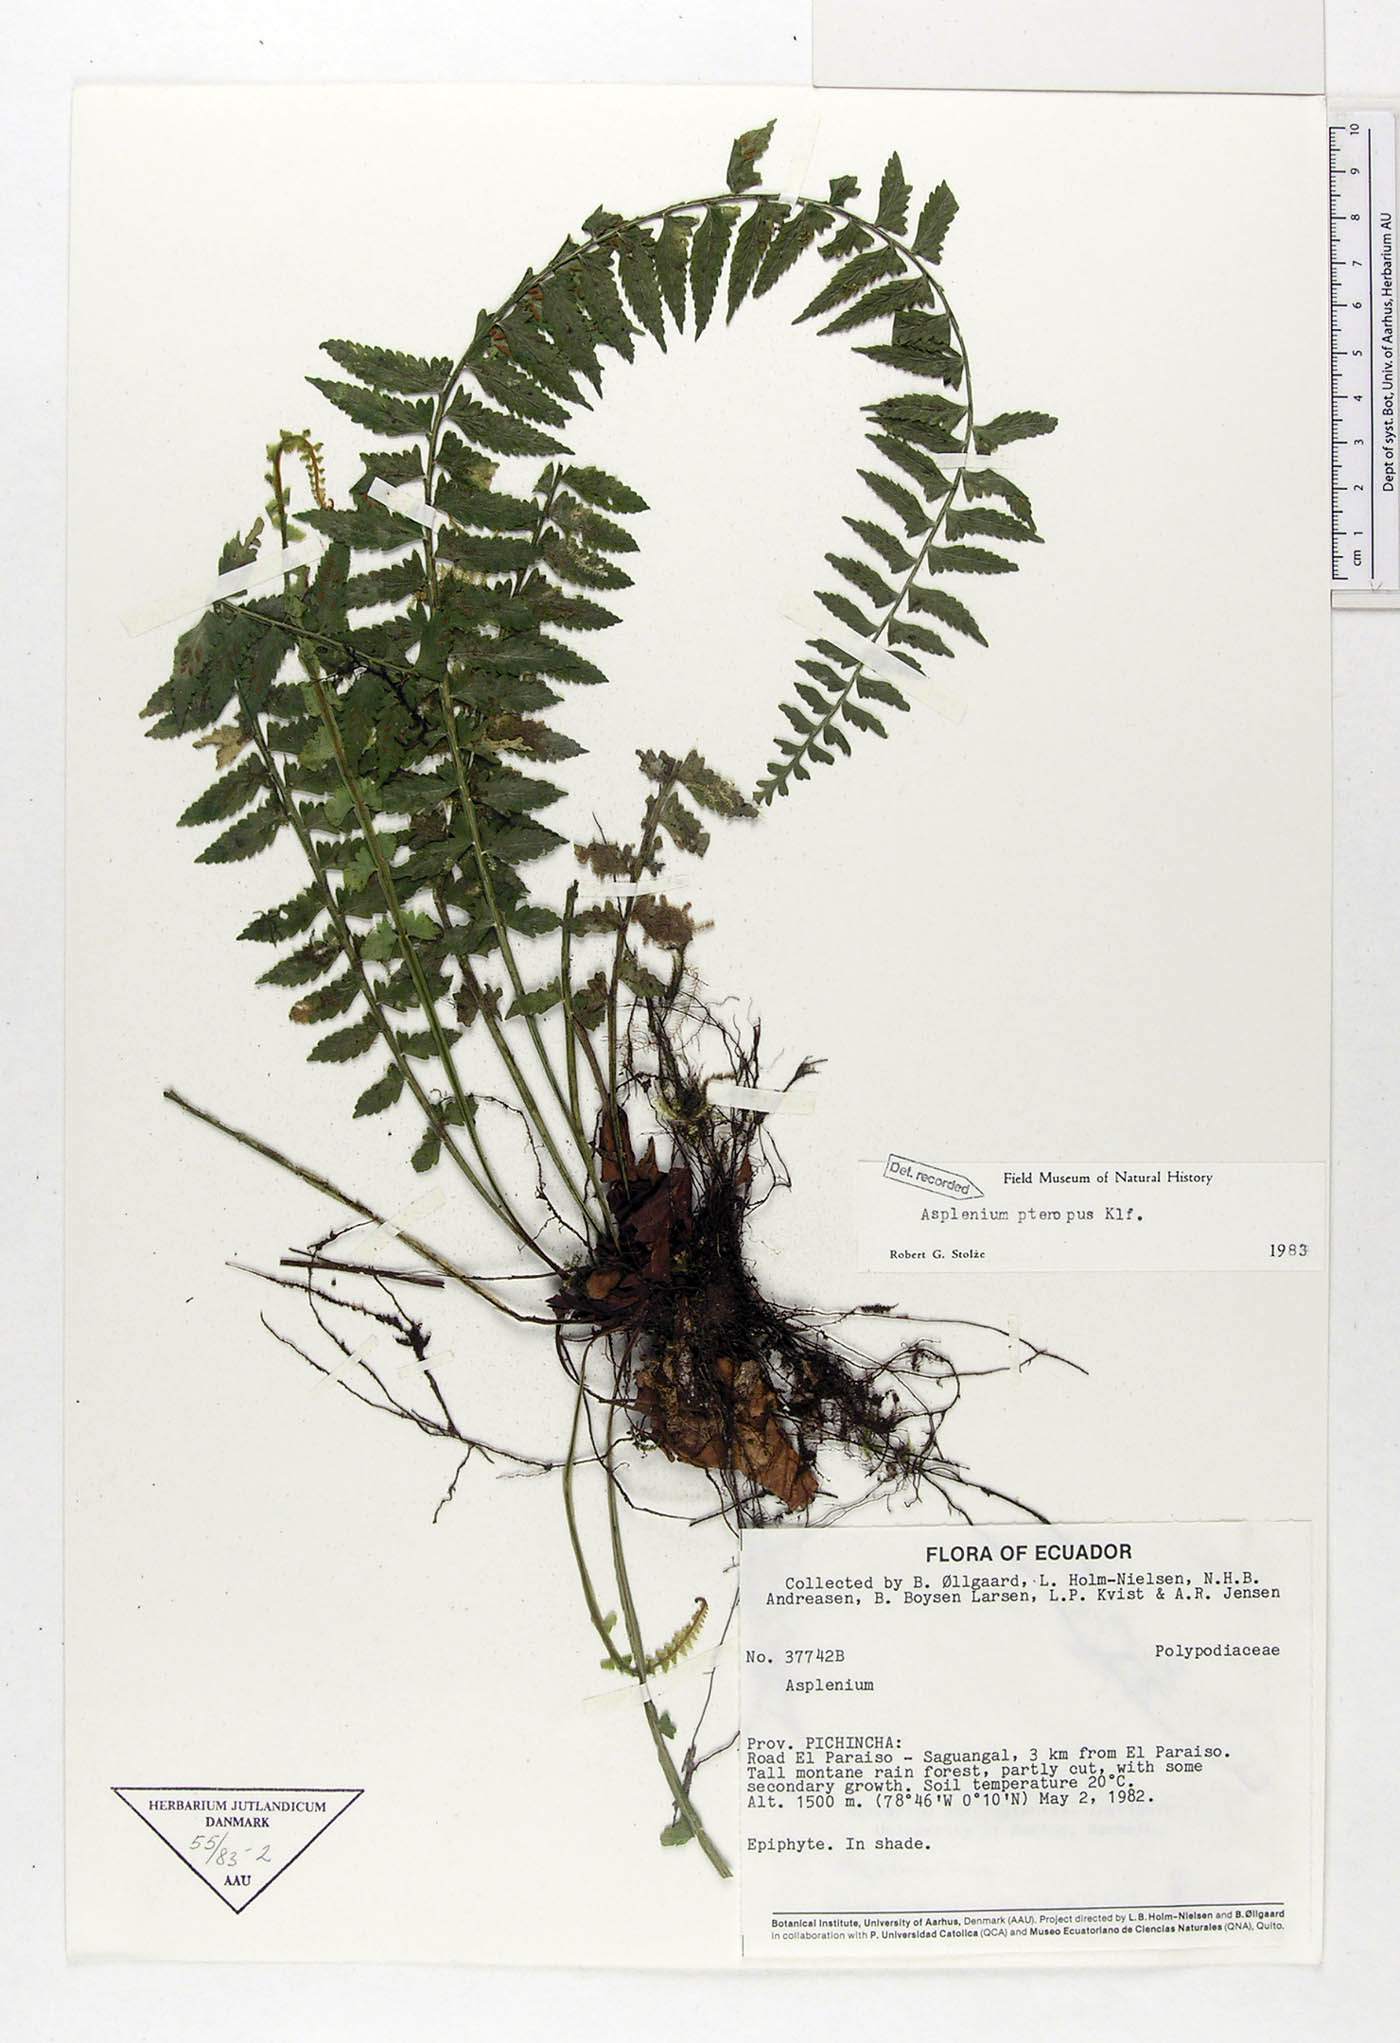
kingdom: Plantae
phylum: Tracheophyta
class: Polypodiopsida
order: Polypodiales
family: Aspleniaceae
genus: Asplenium
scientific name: Asplenium pteropus
